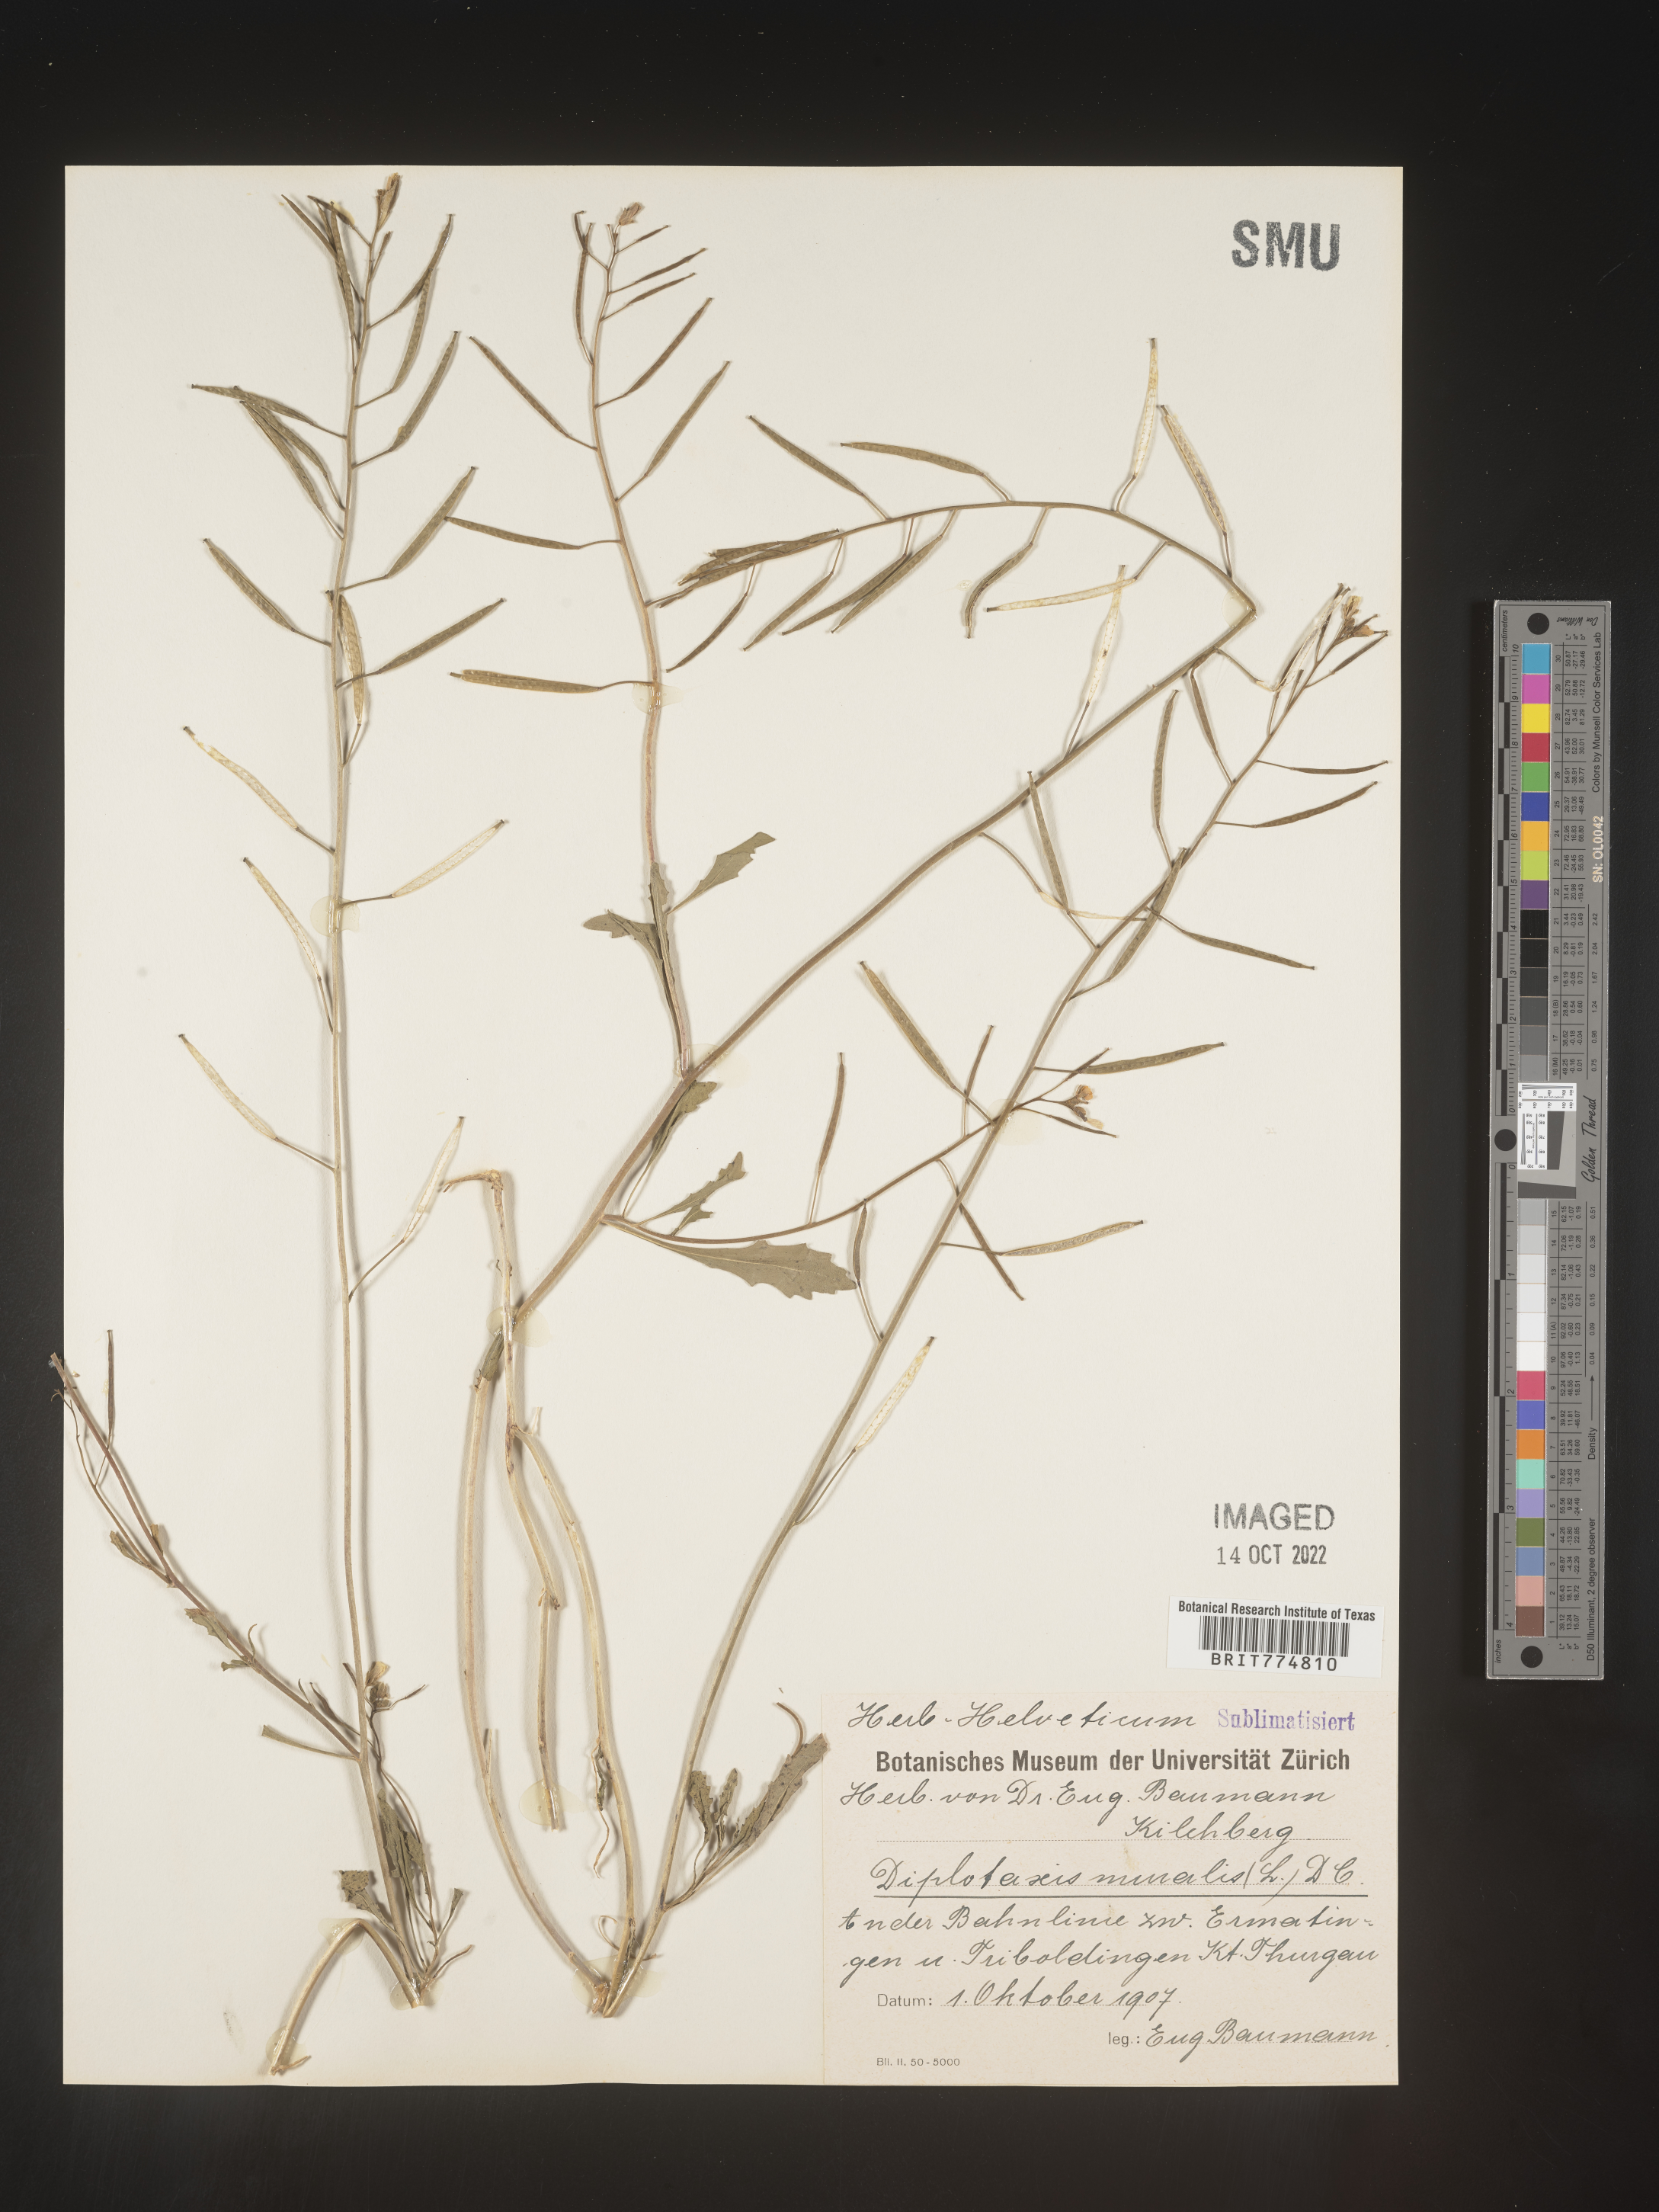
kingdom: Plantae
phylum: Tracheophyta
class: Magnoliopsida
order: Brassicales
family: Brassicaceae
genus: Diplotaxis
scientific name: Diplotaxis
